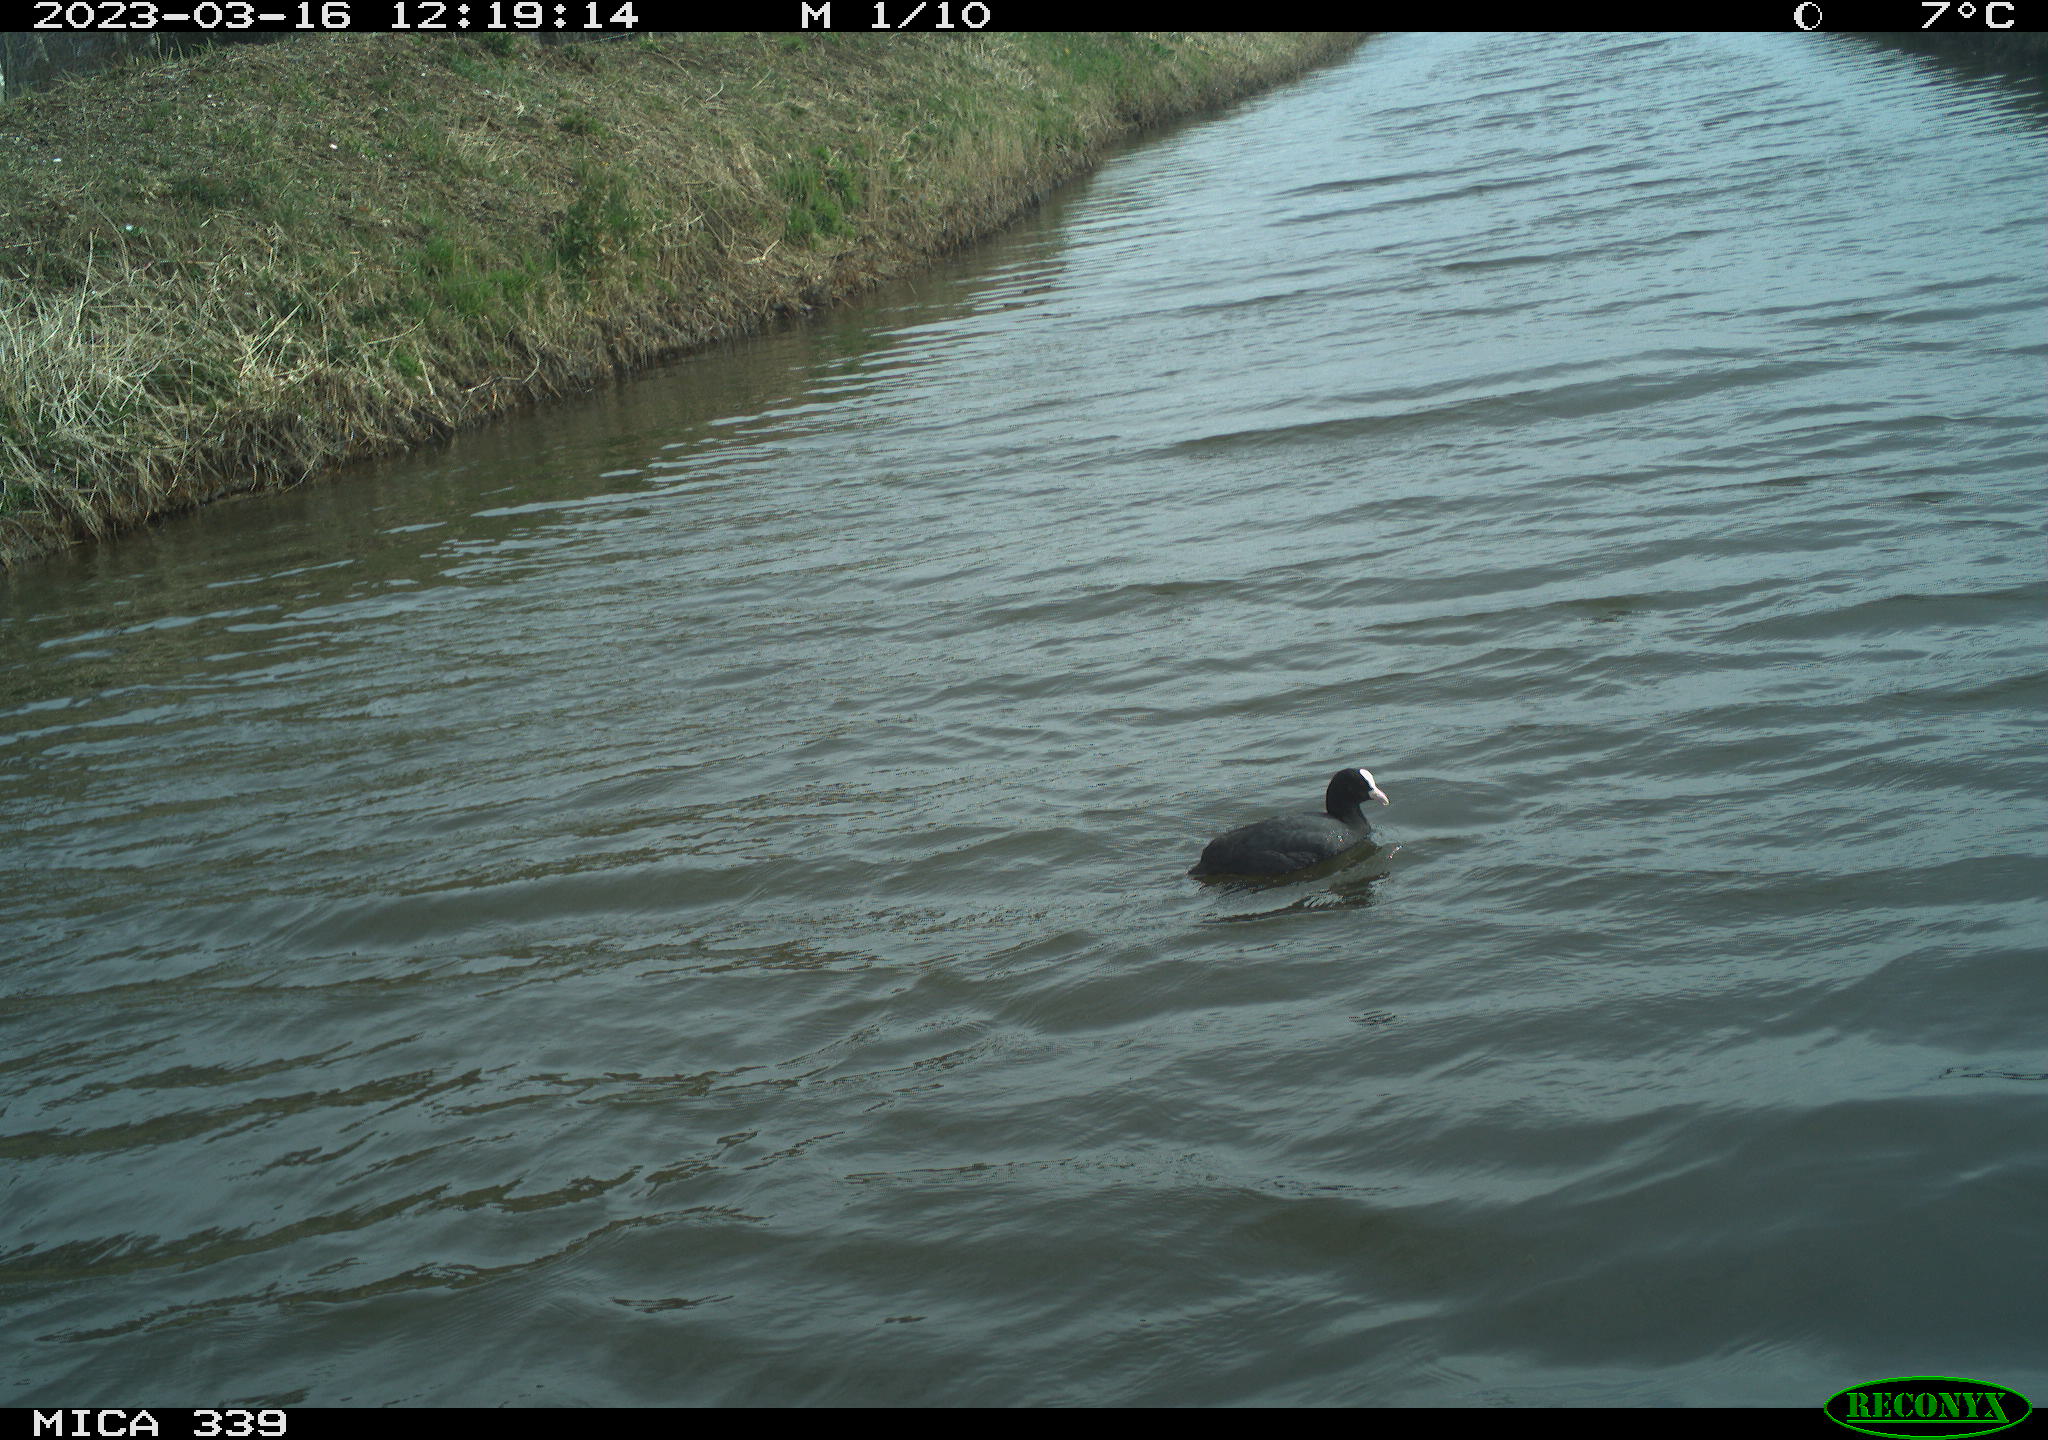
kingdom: Animalia
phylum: Chordata
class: Aves
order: Gruiformes
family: Rallidae
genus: Fulica
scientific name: Fulica atra
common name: Eurasian coot
